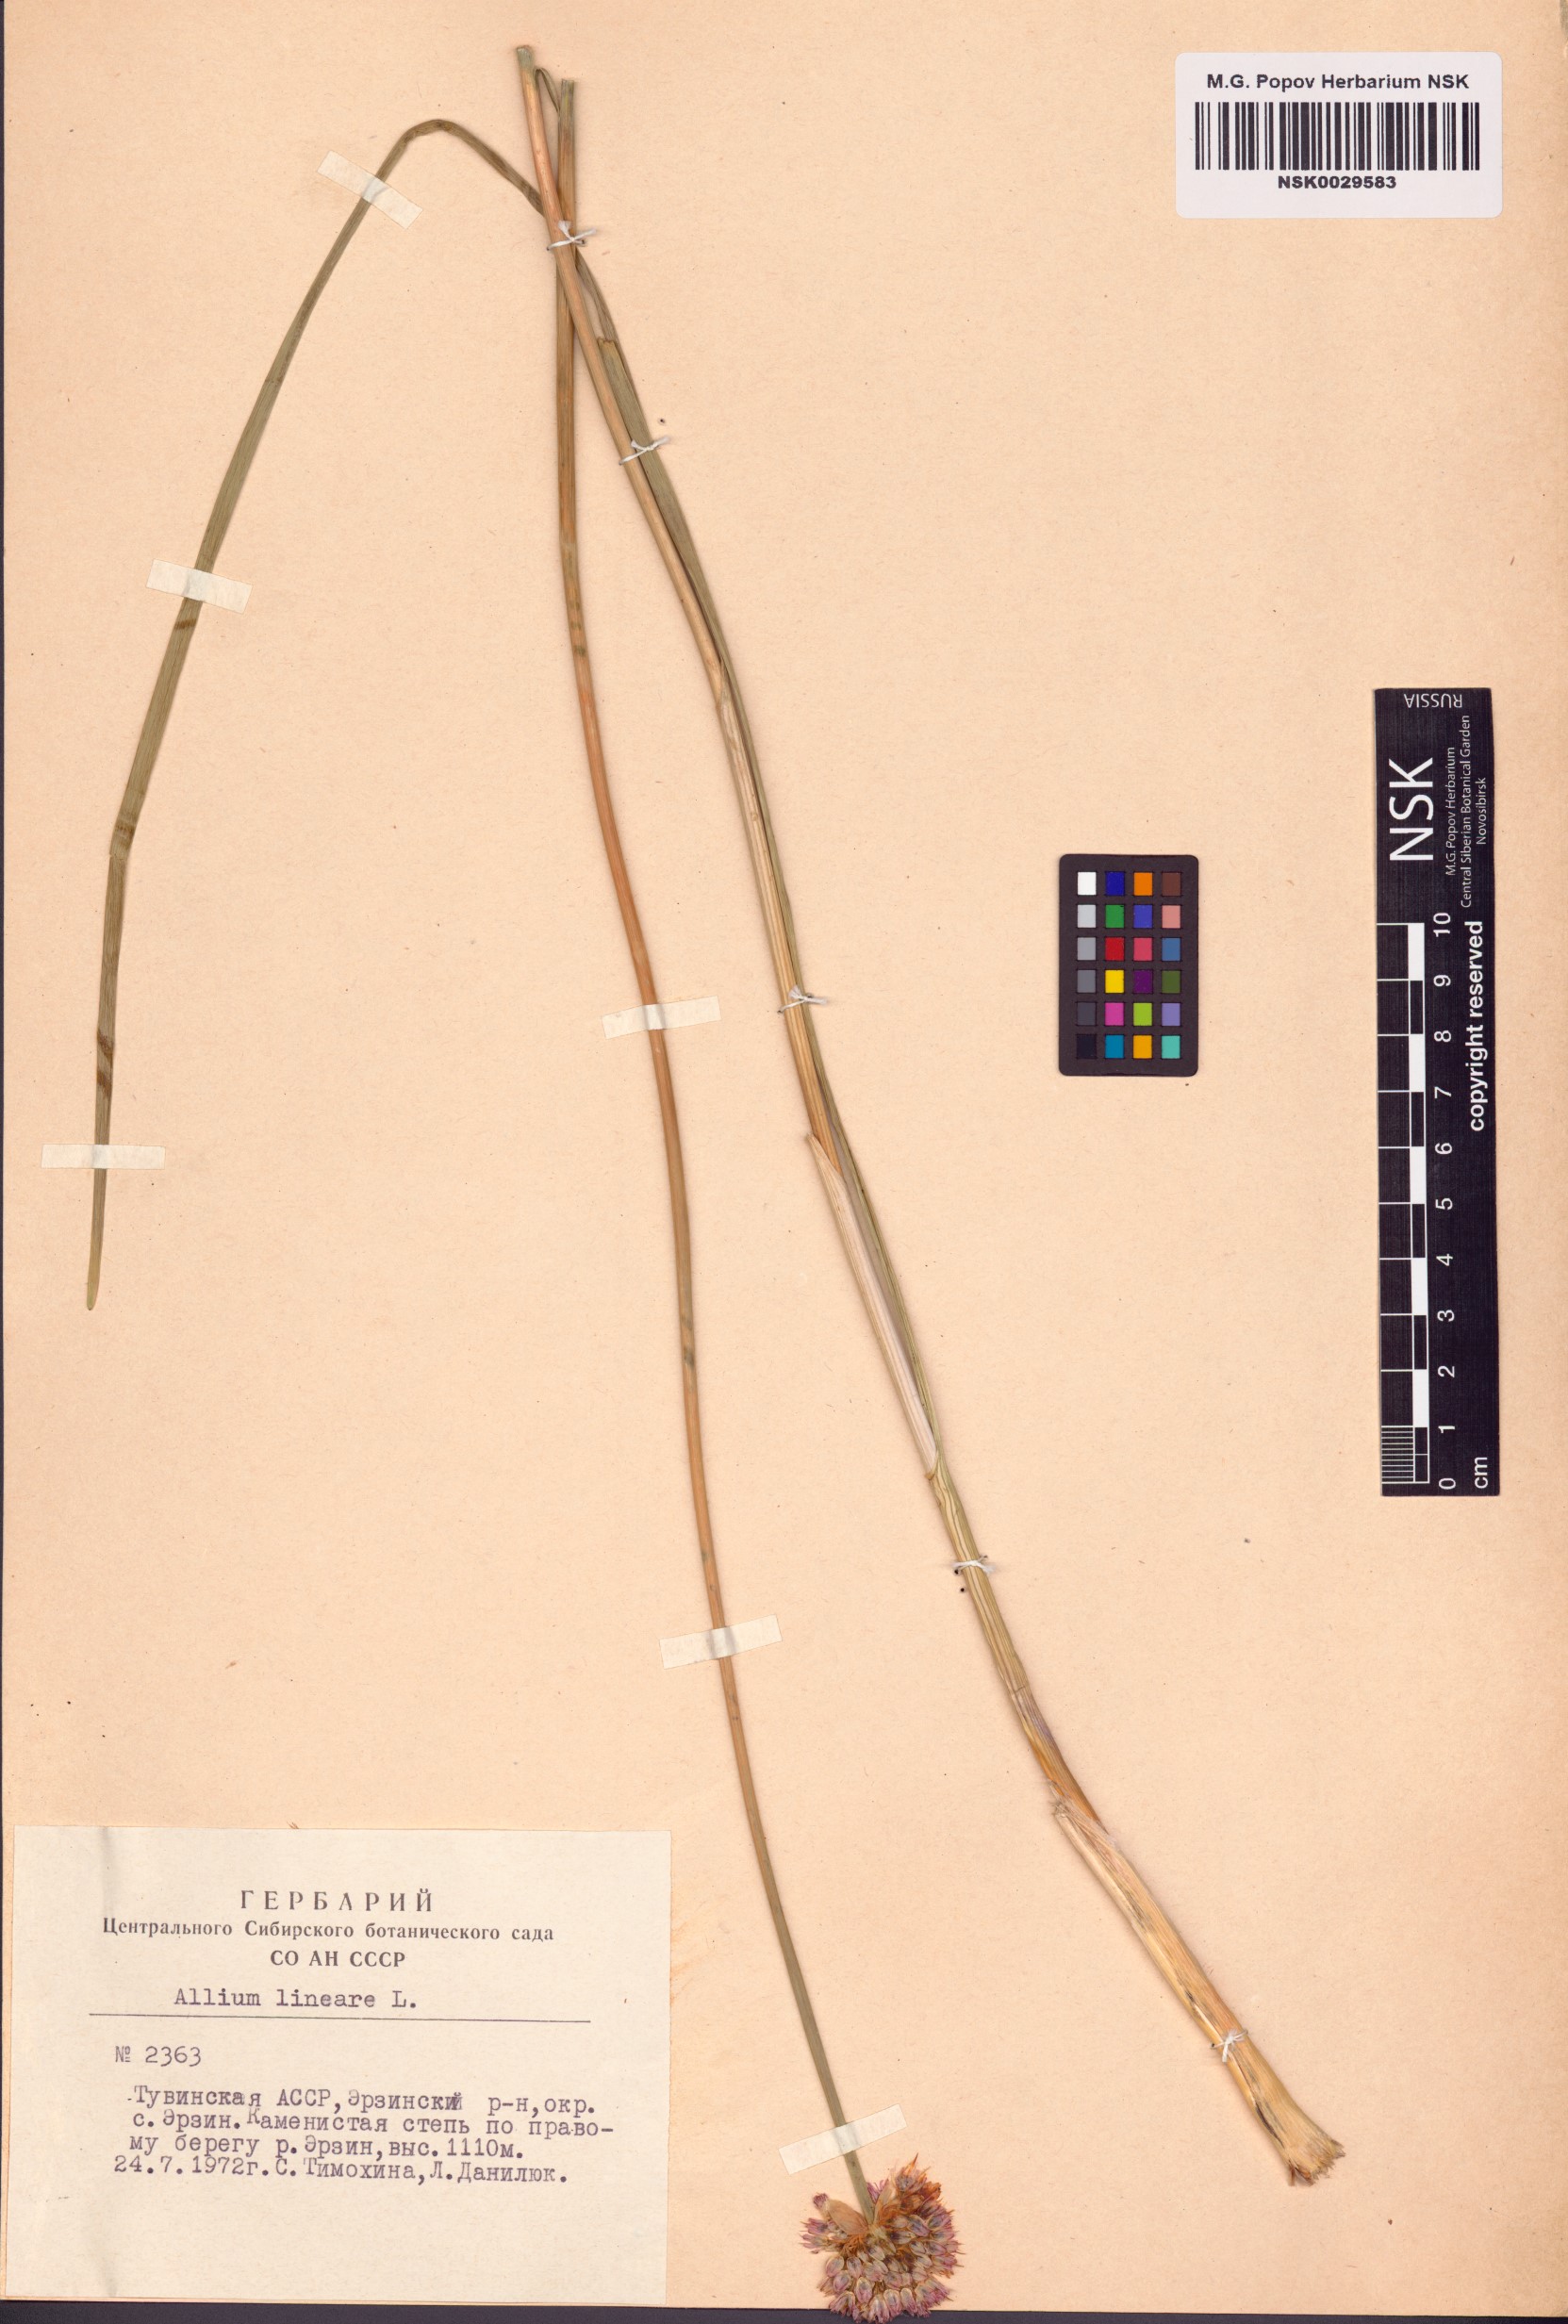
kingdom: Plantae
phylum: Tracheophyta
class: Liliopsida
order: Asparagales
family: Amaryllidaceae
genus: Allium
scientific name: Allium lineare
